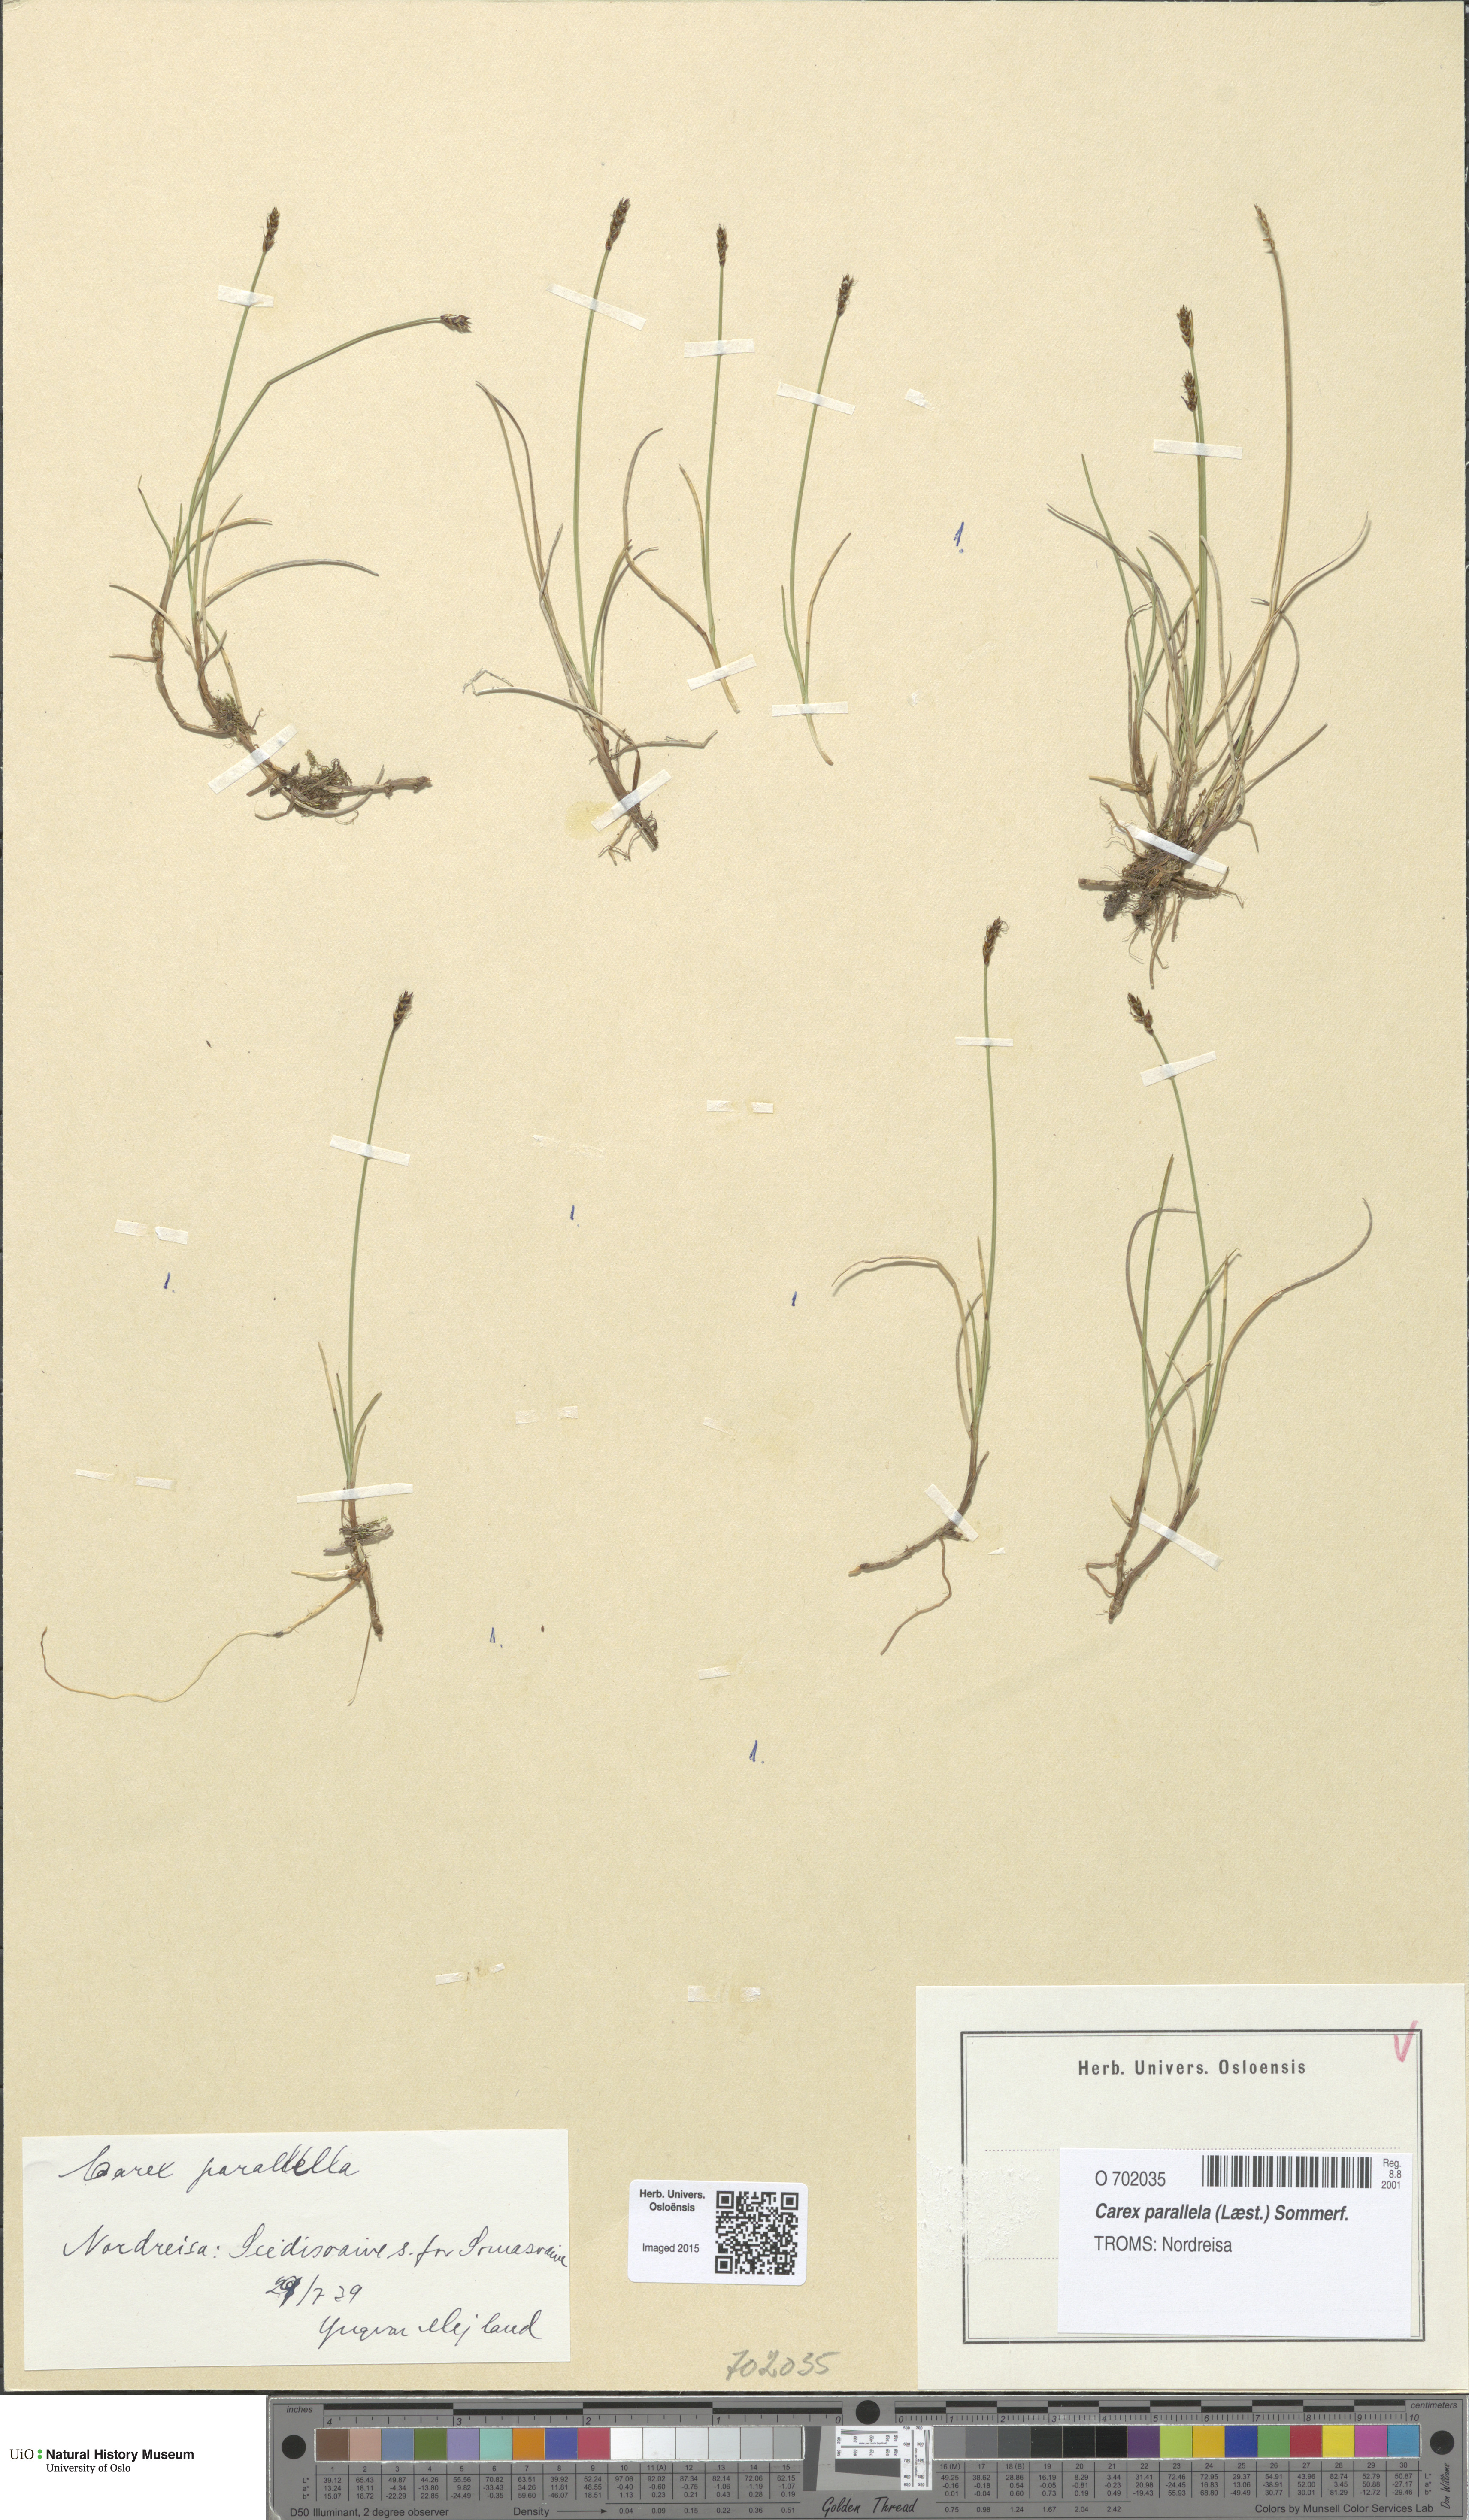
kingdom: Plantae
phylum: Tracheophyta
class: Liliopsida
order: Poales
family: Cyperaceae
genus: Carex
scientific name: Carex parallela
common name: Parallel sedge
